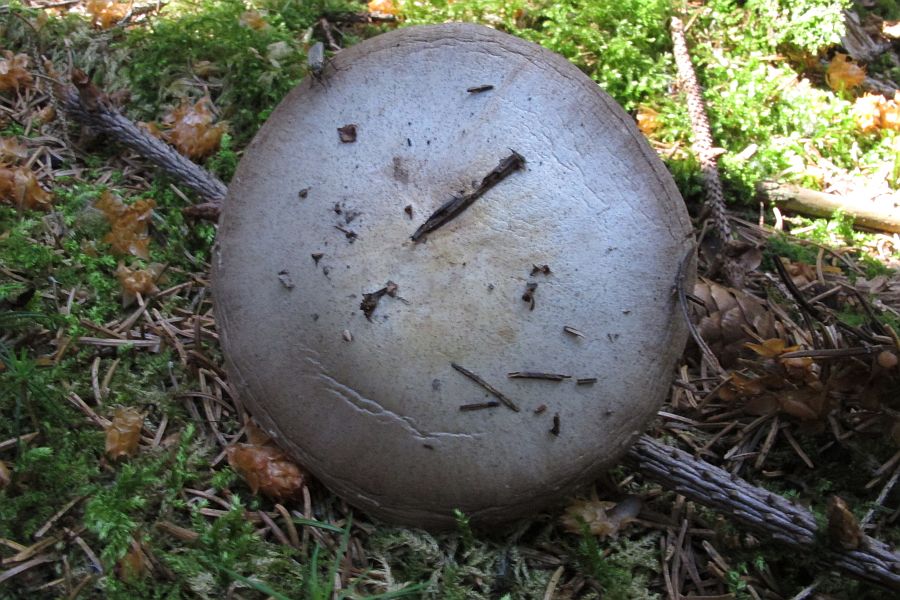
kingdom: Fungi
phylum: Basidiomycota
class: Agaricomycetes
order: Agaricales
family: Agaricaceae
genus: Agaricus
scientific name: Agaricus sylvicola
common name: gulhvid champignon
